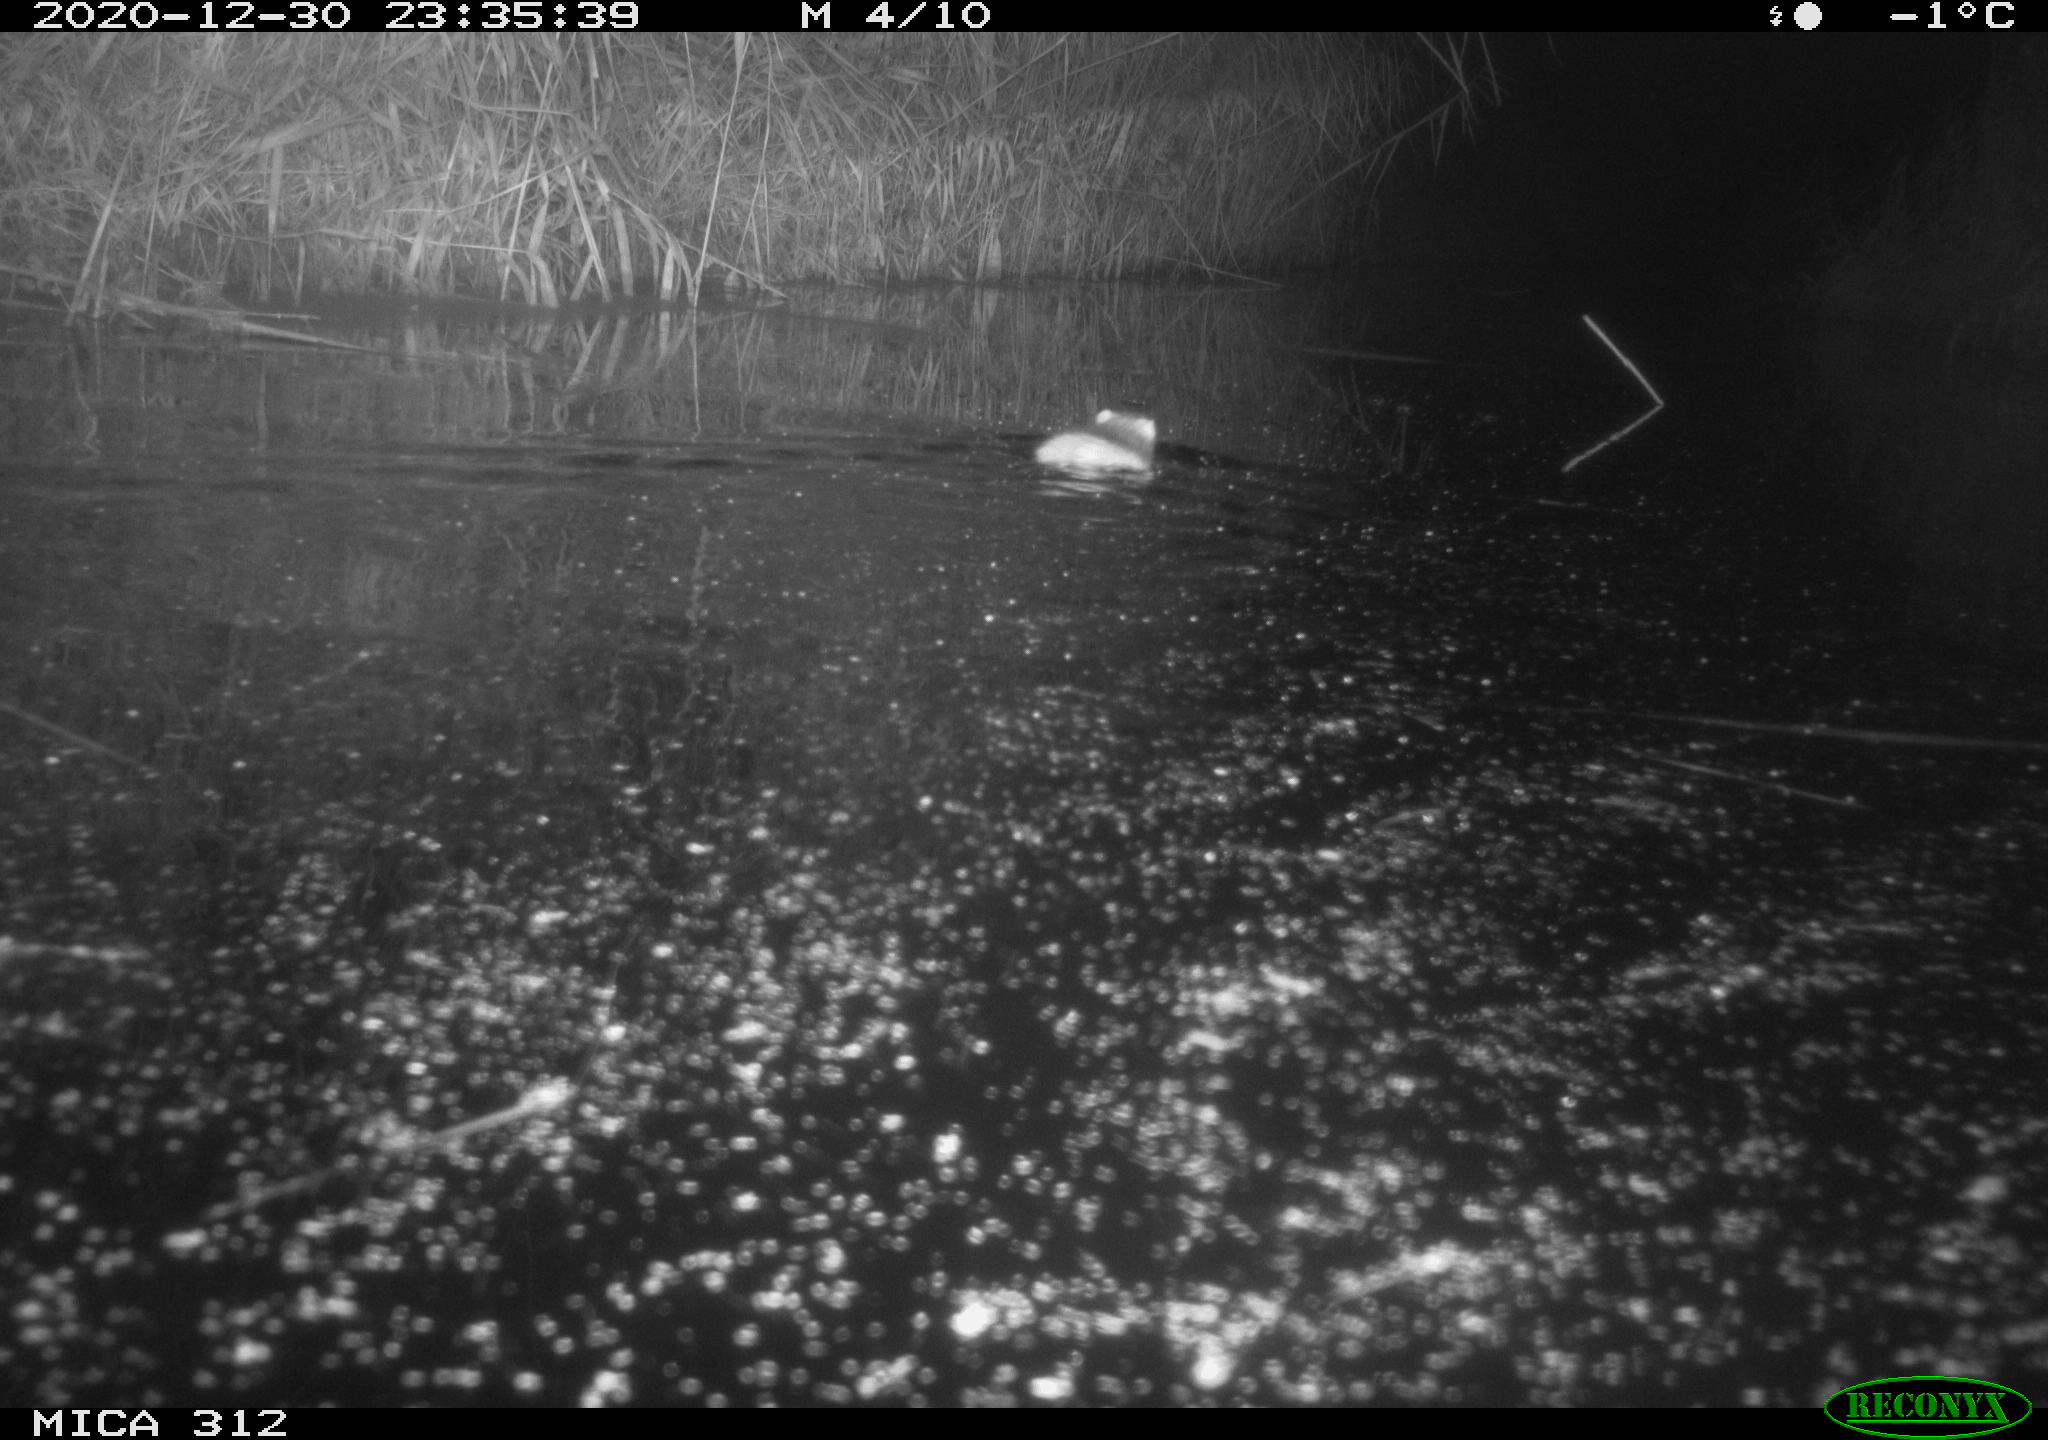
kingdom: Animalia
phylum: Chordata
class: Mammalia
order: Rodentia
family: Muridae
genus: Rattus
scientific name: Rattus norvegicus
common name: Brown rat
